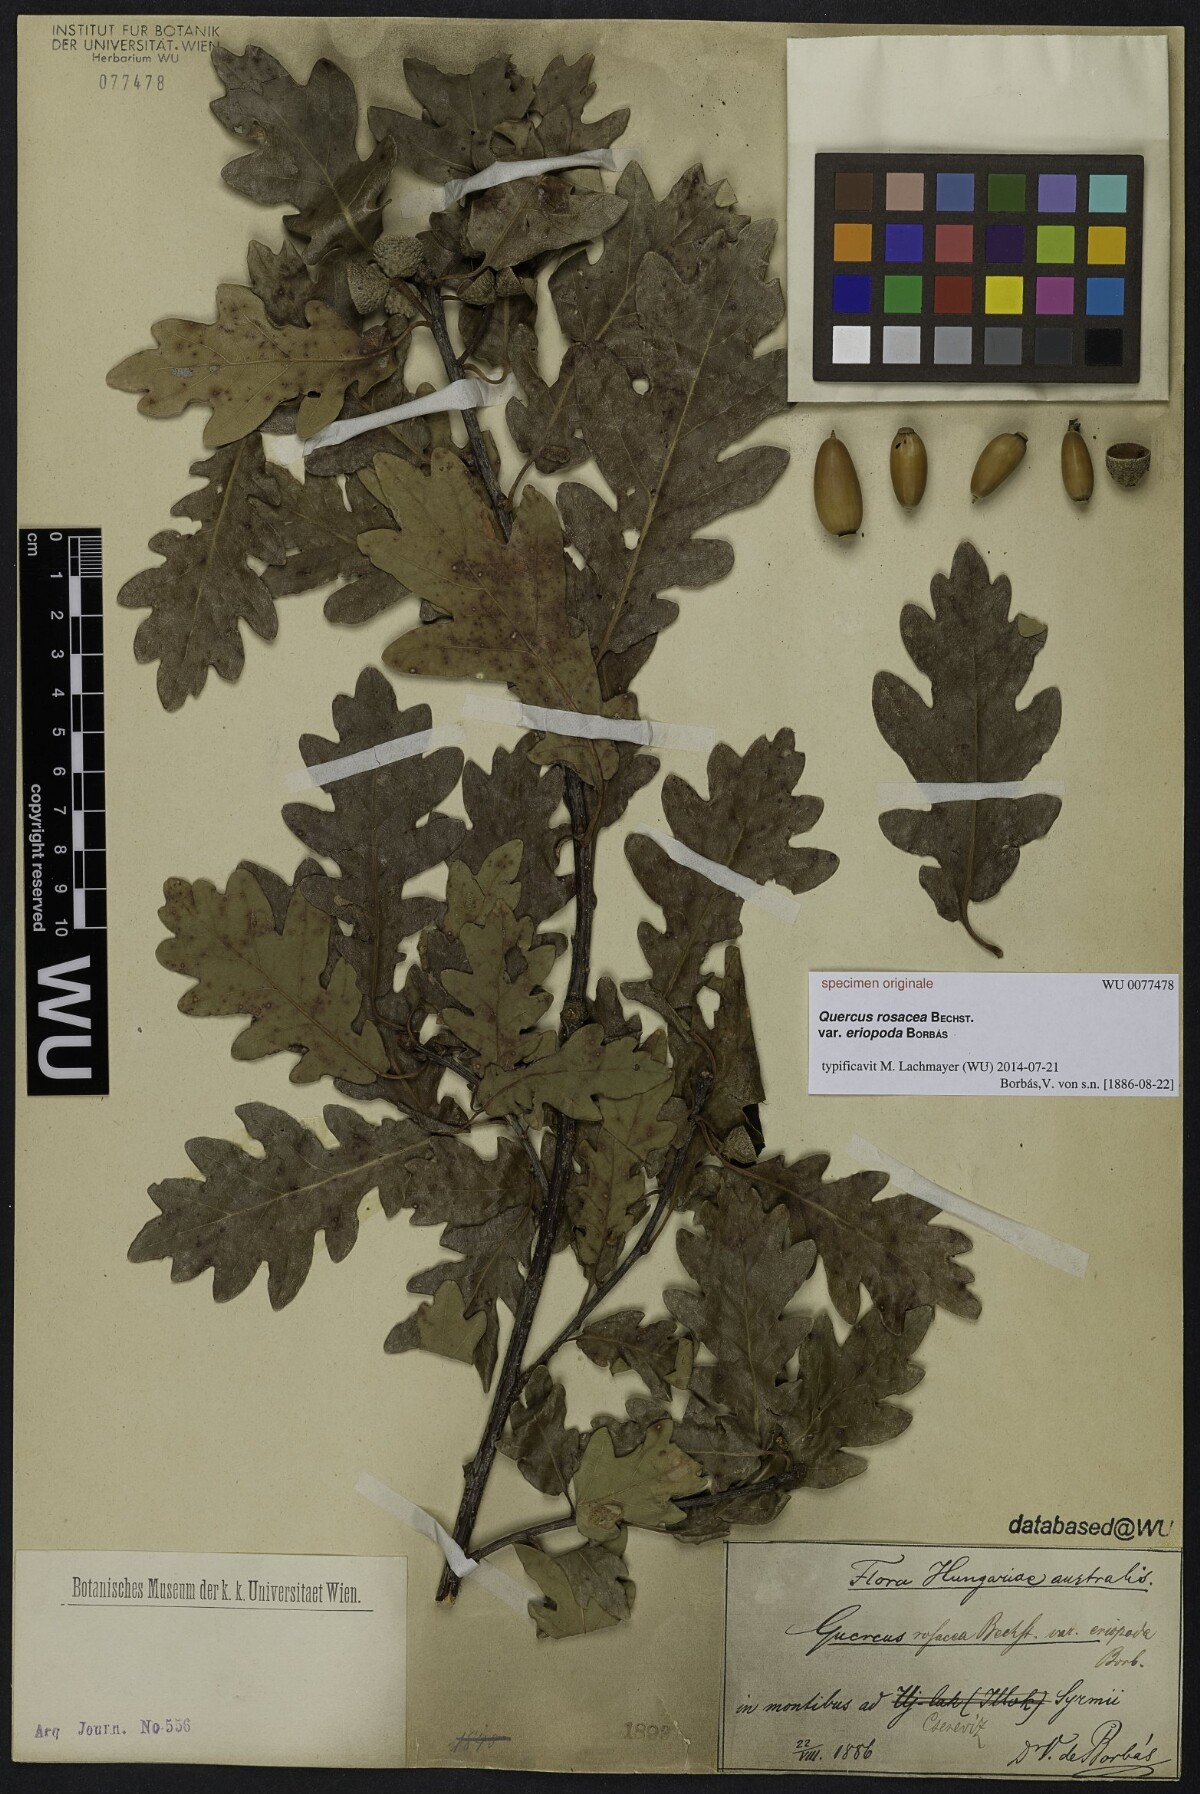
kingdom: Plantae
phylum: Tracheophyta
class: Magnoliopsida
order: Fagales
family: Fagaceae
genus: Quercus
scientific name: Quercus rosacea
